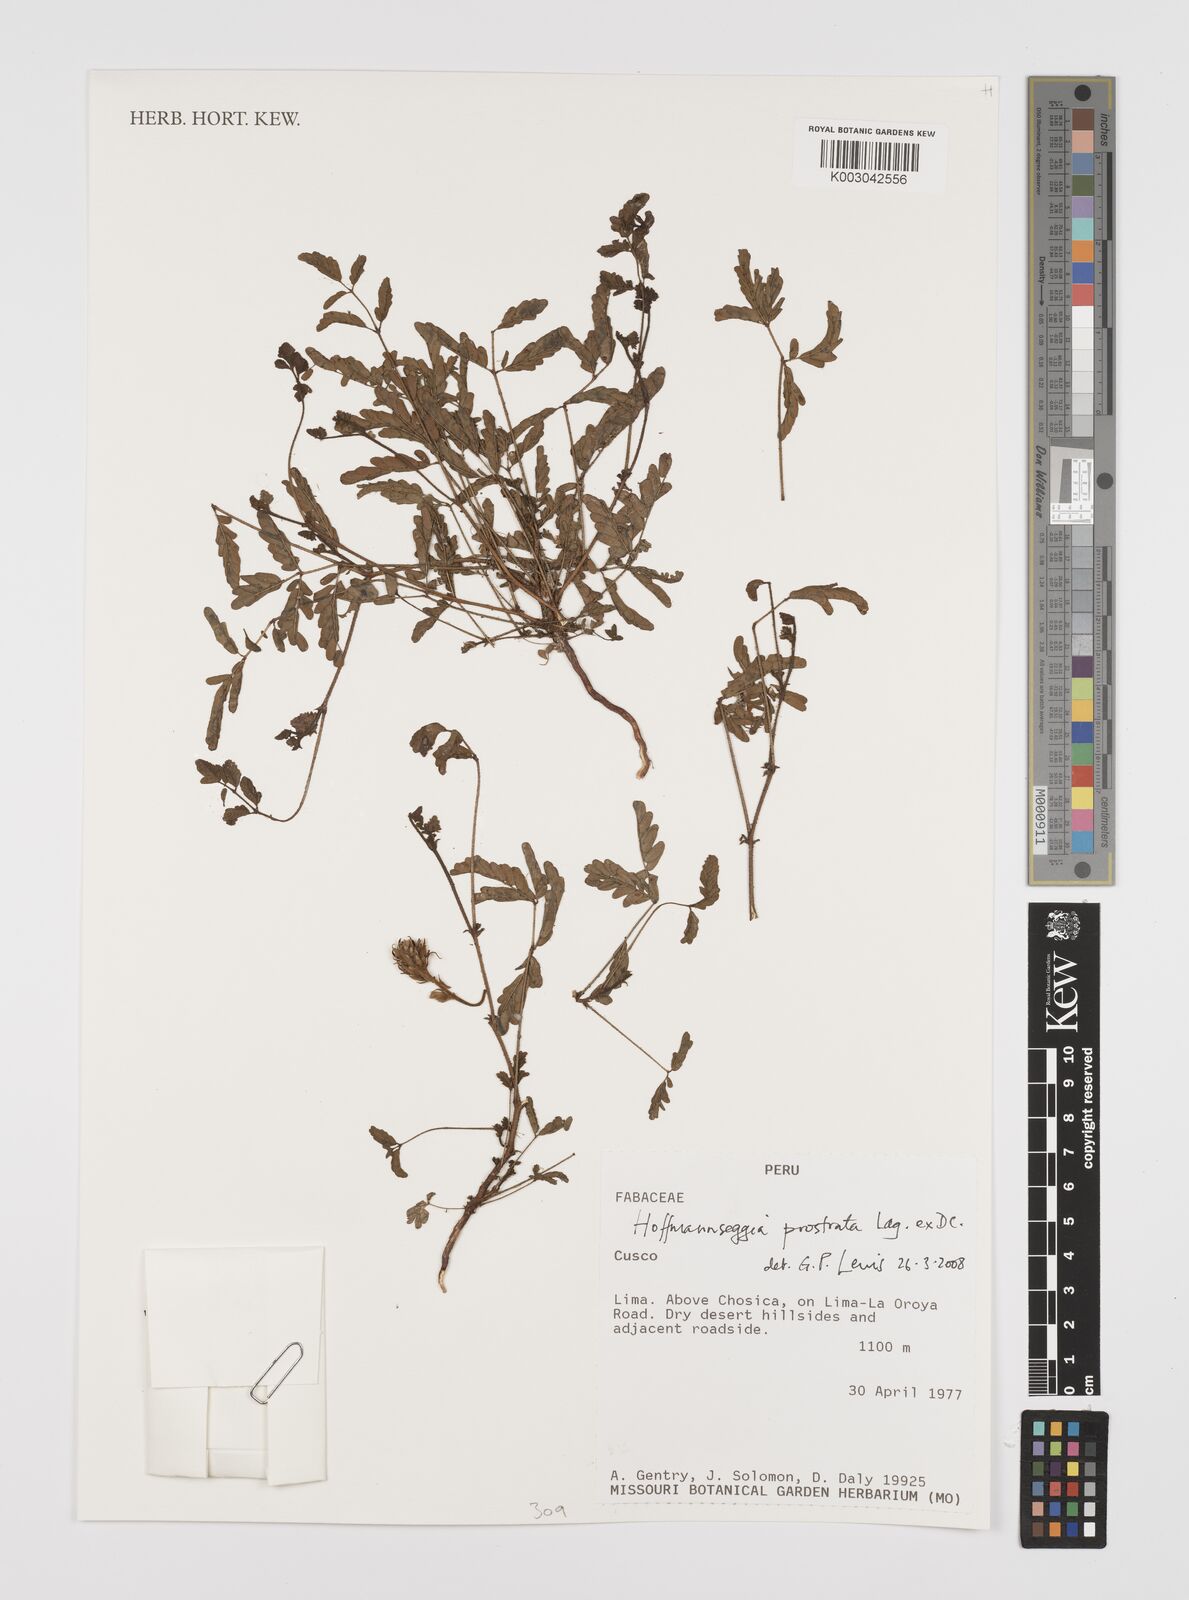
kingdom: Plantae
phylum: Tracheophyta
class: Magnoliopsida
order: Fabales
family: Fabaceae
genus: Hoffmannseggia
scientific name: Hoffmannseggia prostrata
